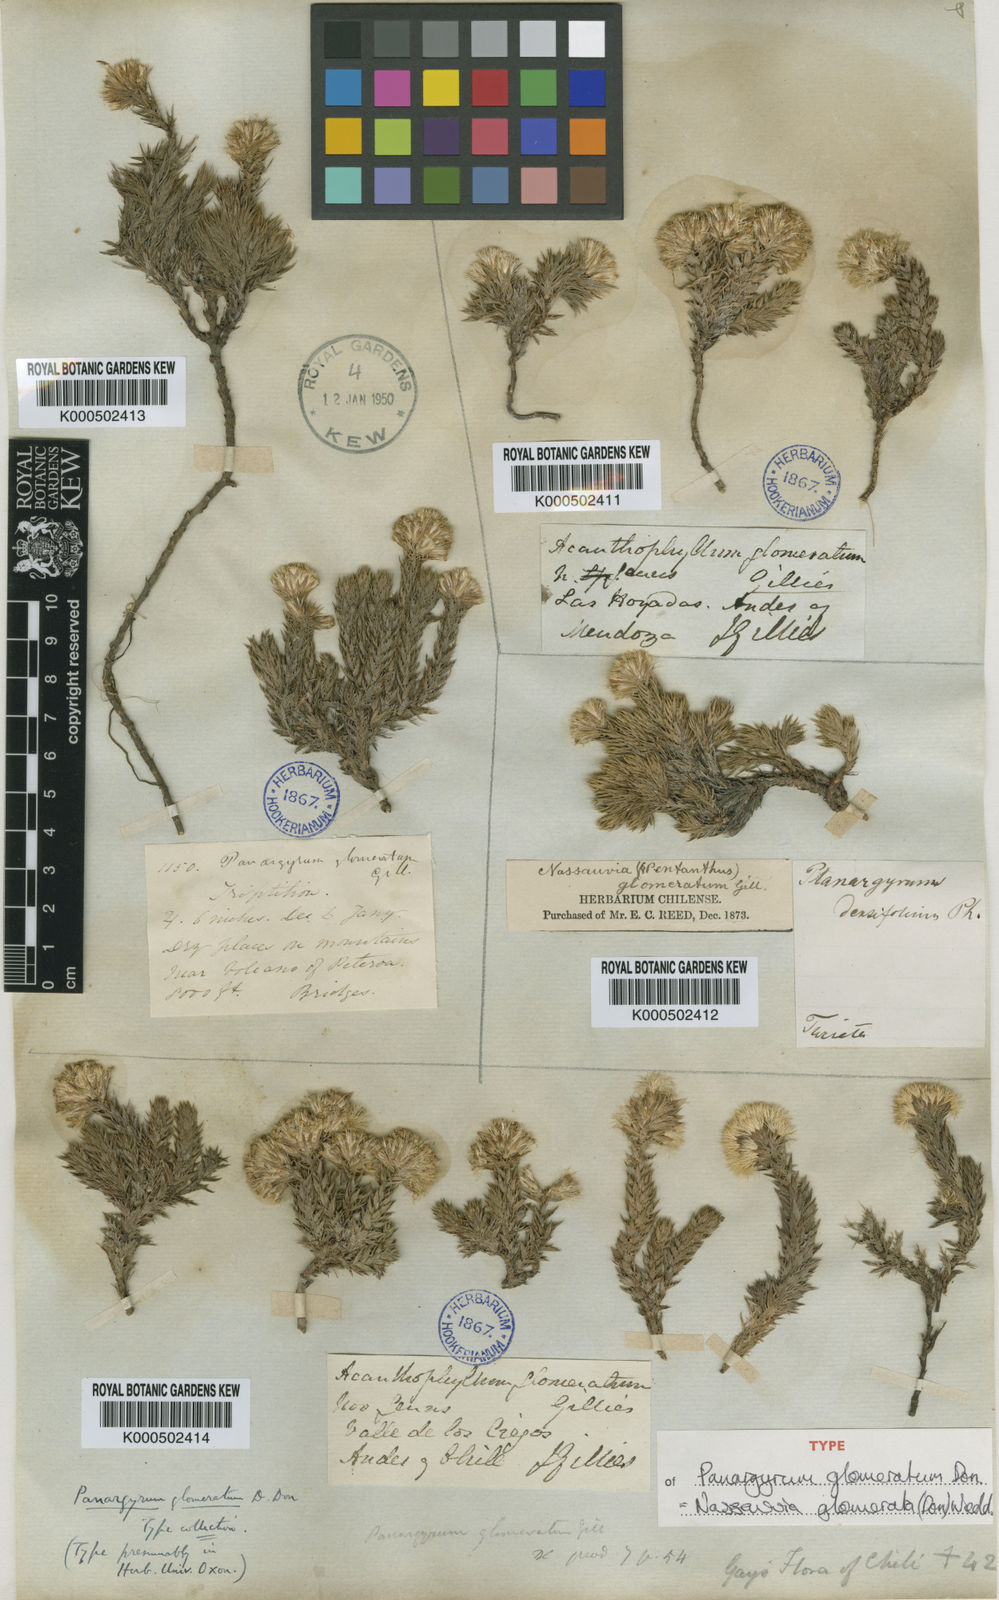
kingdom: Plantae
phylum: Tracheophyta
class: Magnoliopsida
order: Asterales
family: Asteraceae
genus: Nassauvia
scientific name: Nassauvia glomerata
